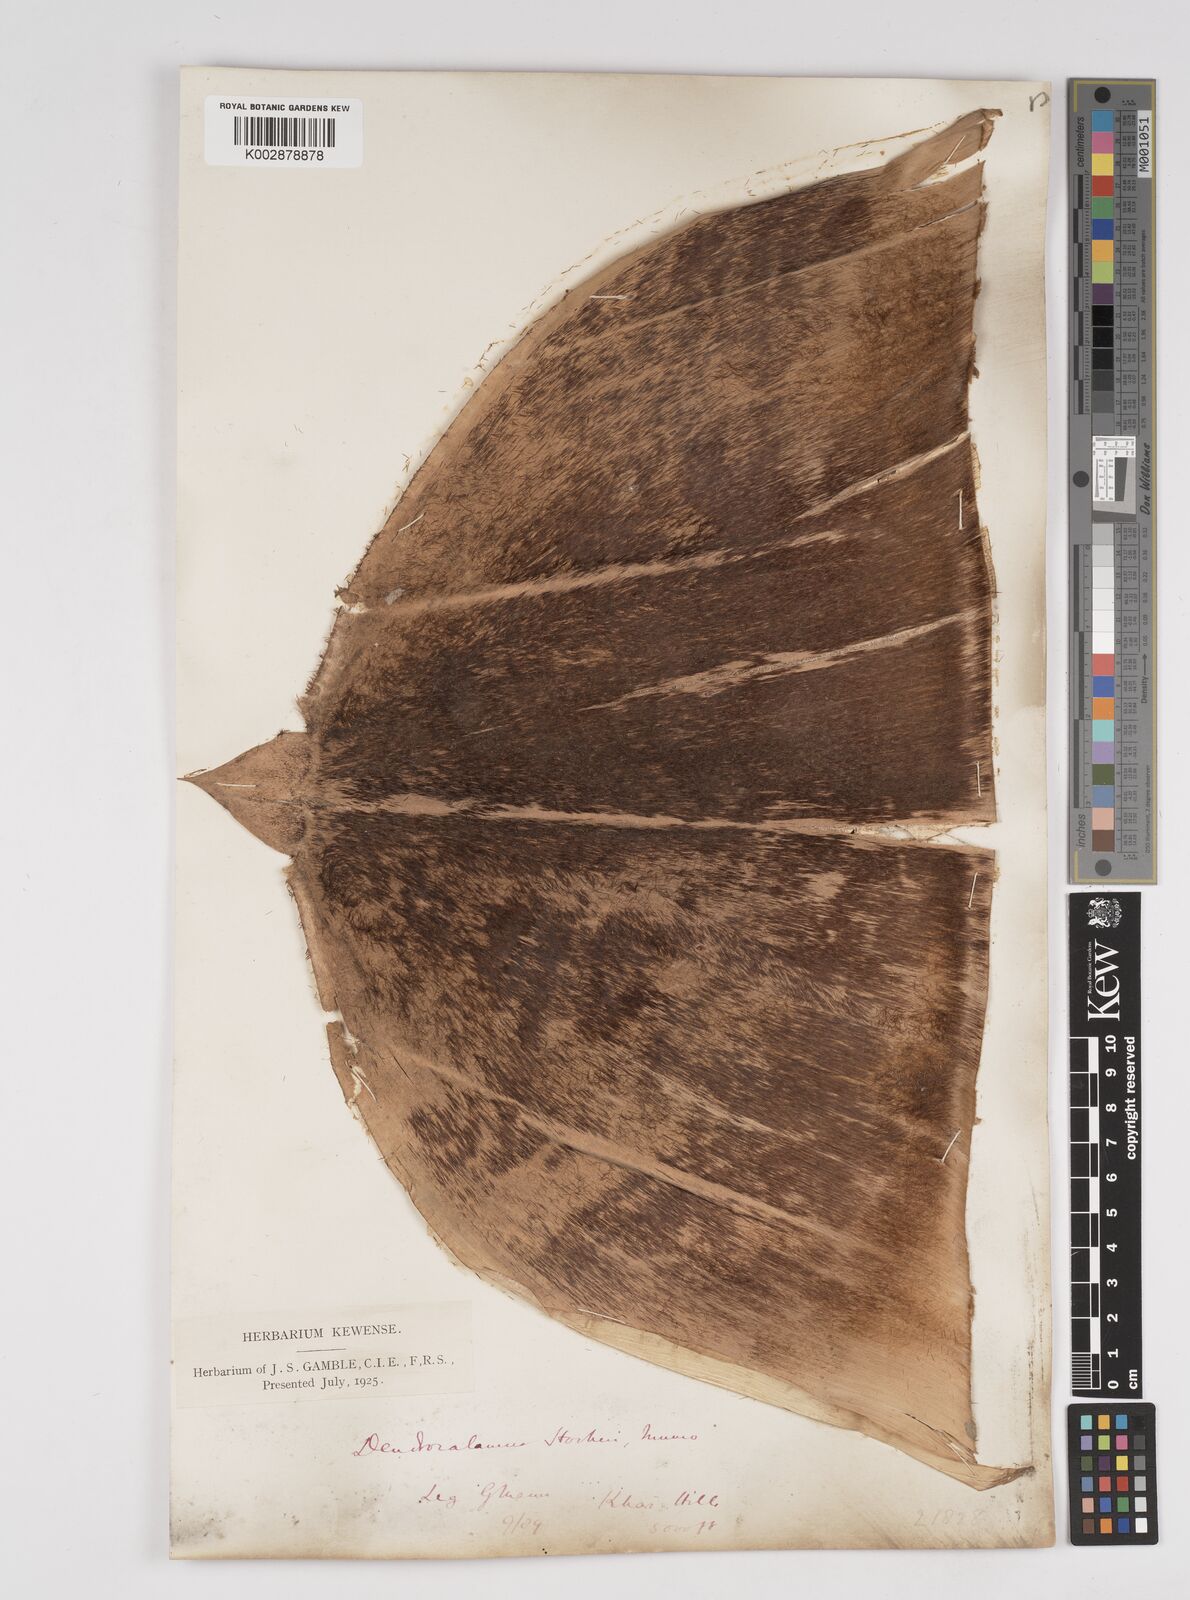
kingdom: Plantae
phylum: Tracheophyta
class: Liliopsida
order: Poales
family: Poaceae
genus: Dendrocalamus
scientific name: Dendrocalamus hookeri
